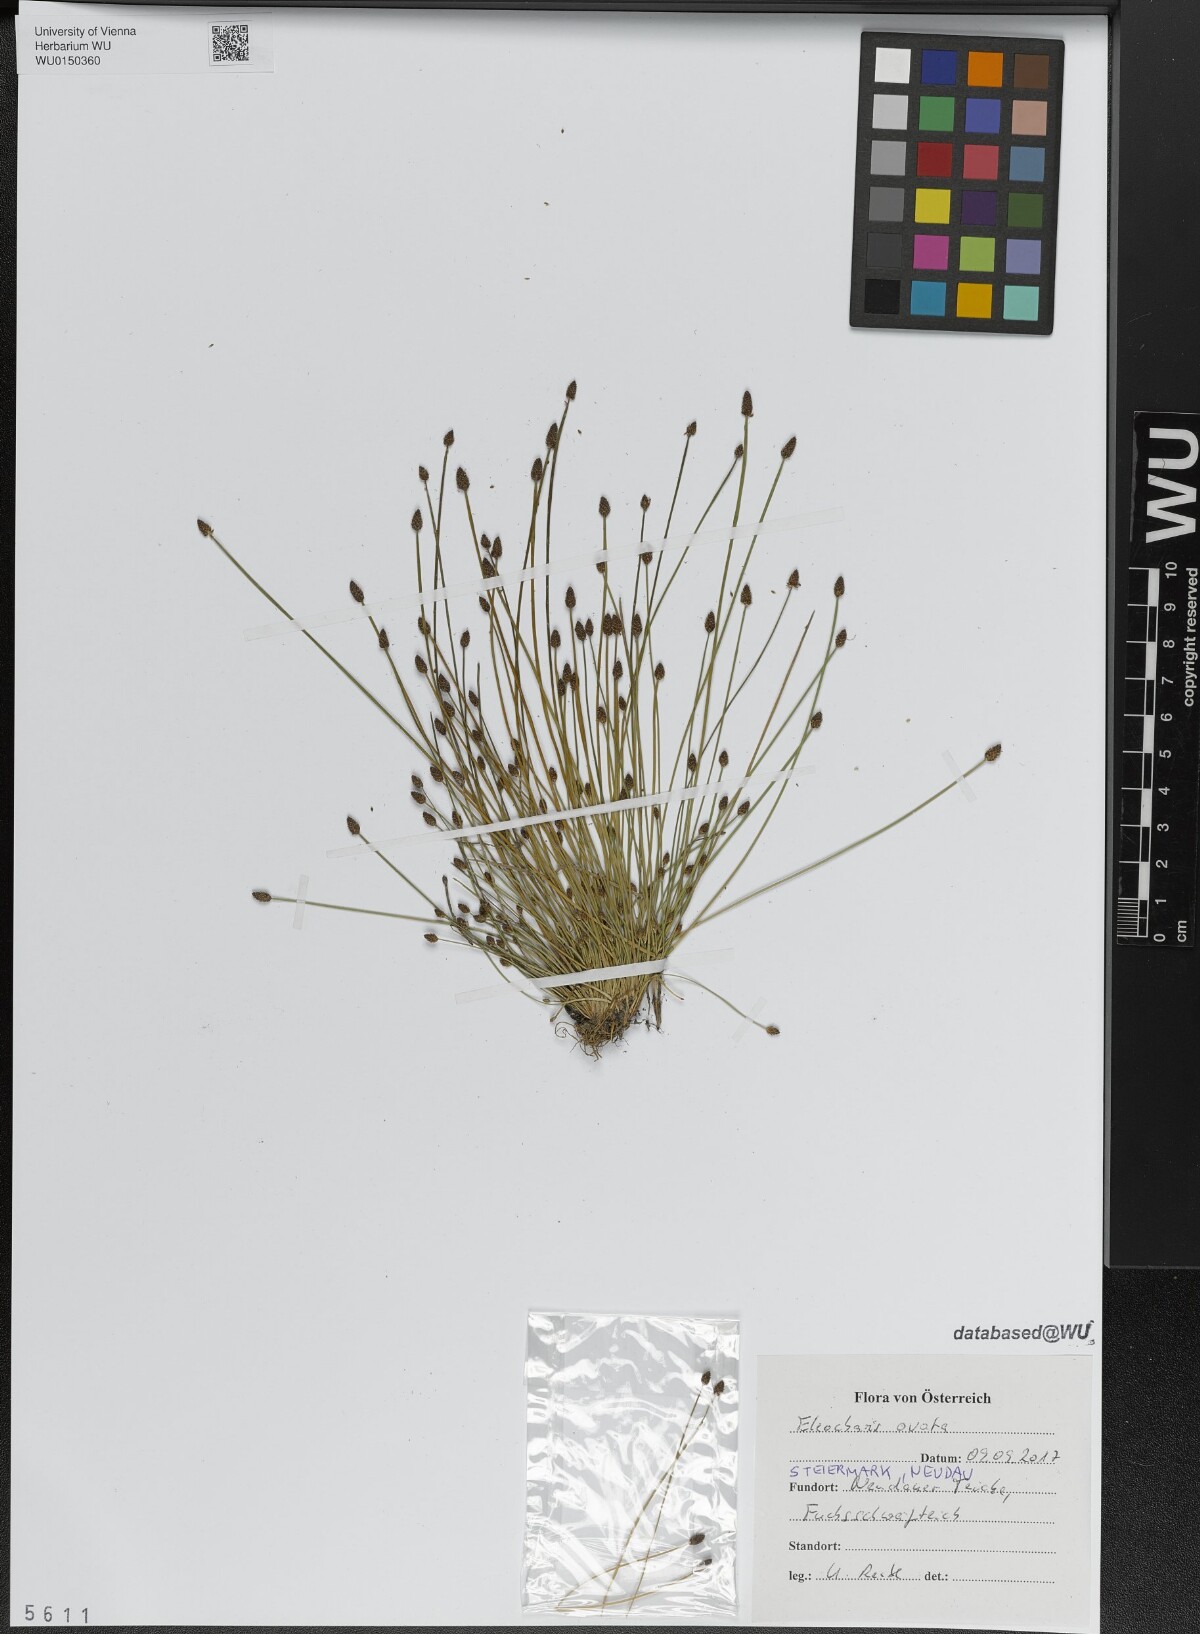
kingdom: Plantae
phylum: Tracheophyta
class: Liliopsida
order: Poales
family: Cyperaceae
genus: Eleocharis
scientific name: Eleocharis ovata
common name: Oval spike-rush
